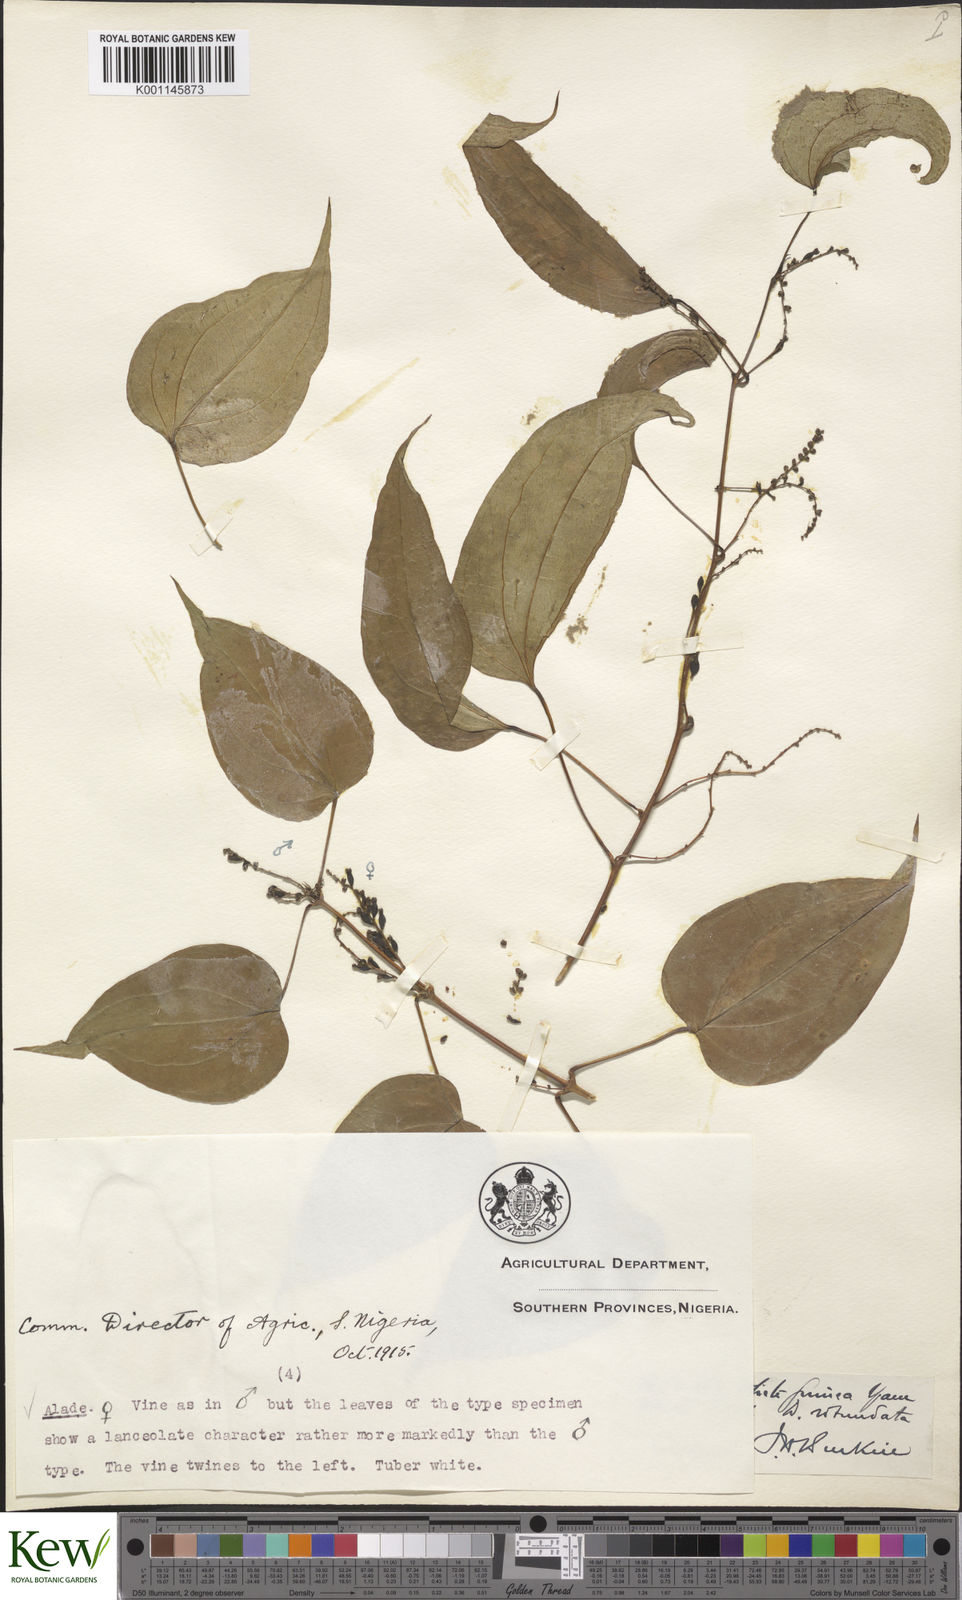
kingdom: Plantae
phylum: Tracheophyta
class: Liliopsida
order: Dioscoreales
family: Dioscoreaceae
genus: Dioscorea
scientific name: Dioscorea cayenensis
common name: Attoto yam
